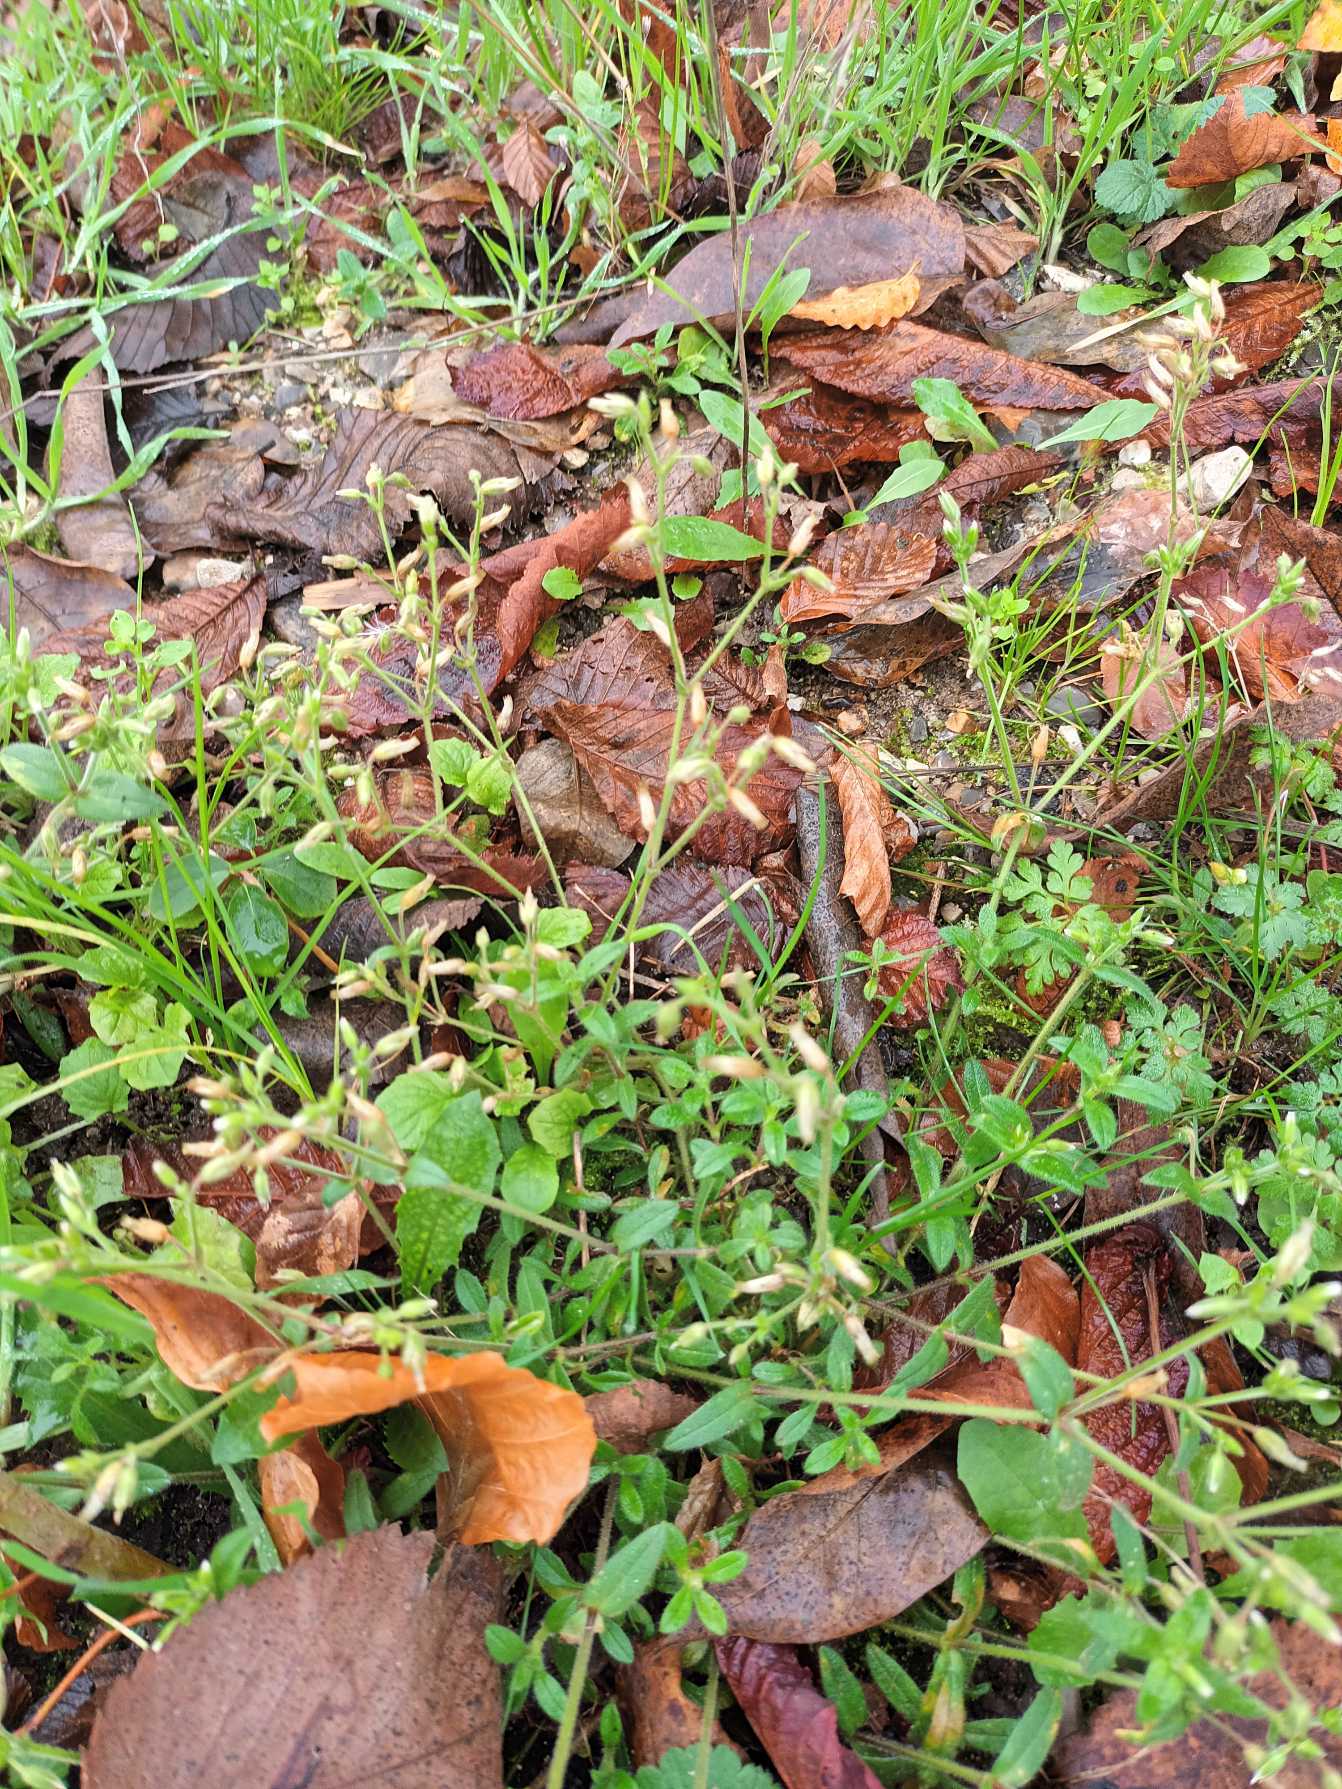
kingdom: Plantae
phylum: Tracheophyta
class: Magnoliopsida
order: Caryophyllales
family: Caryophyllaceae
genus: Cerastium
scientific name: Cerastium fontanum
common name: Almindelig hønsetarm
